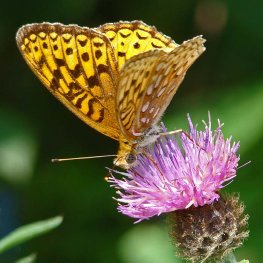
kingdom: Animalia
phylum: Arthropoda
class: Insecta
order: Lepidoptera
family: Nymphalidae
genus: Speyeria
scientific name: Speyeria atlantis
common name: Atlantis Fritillary
